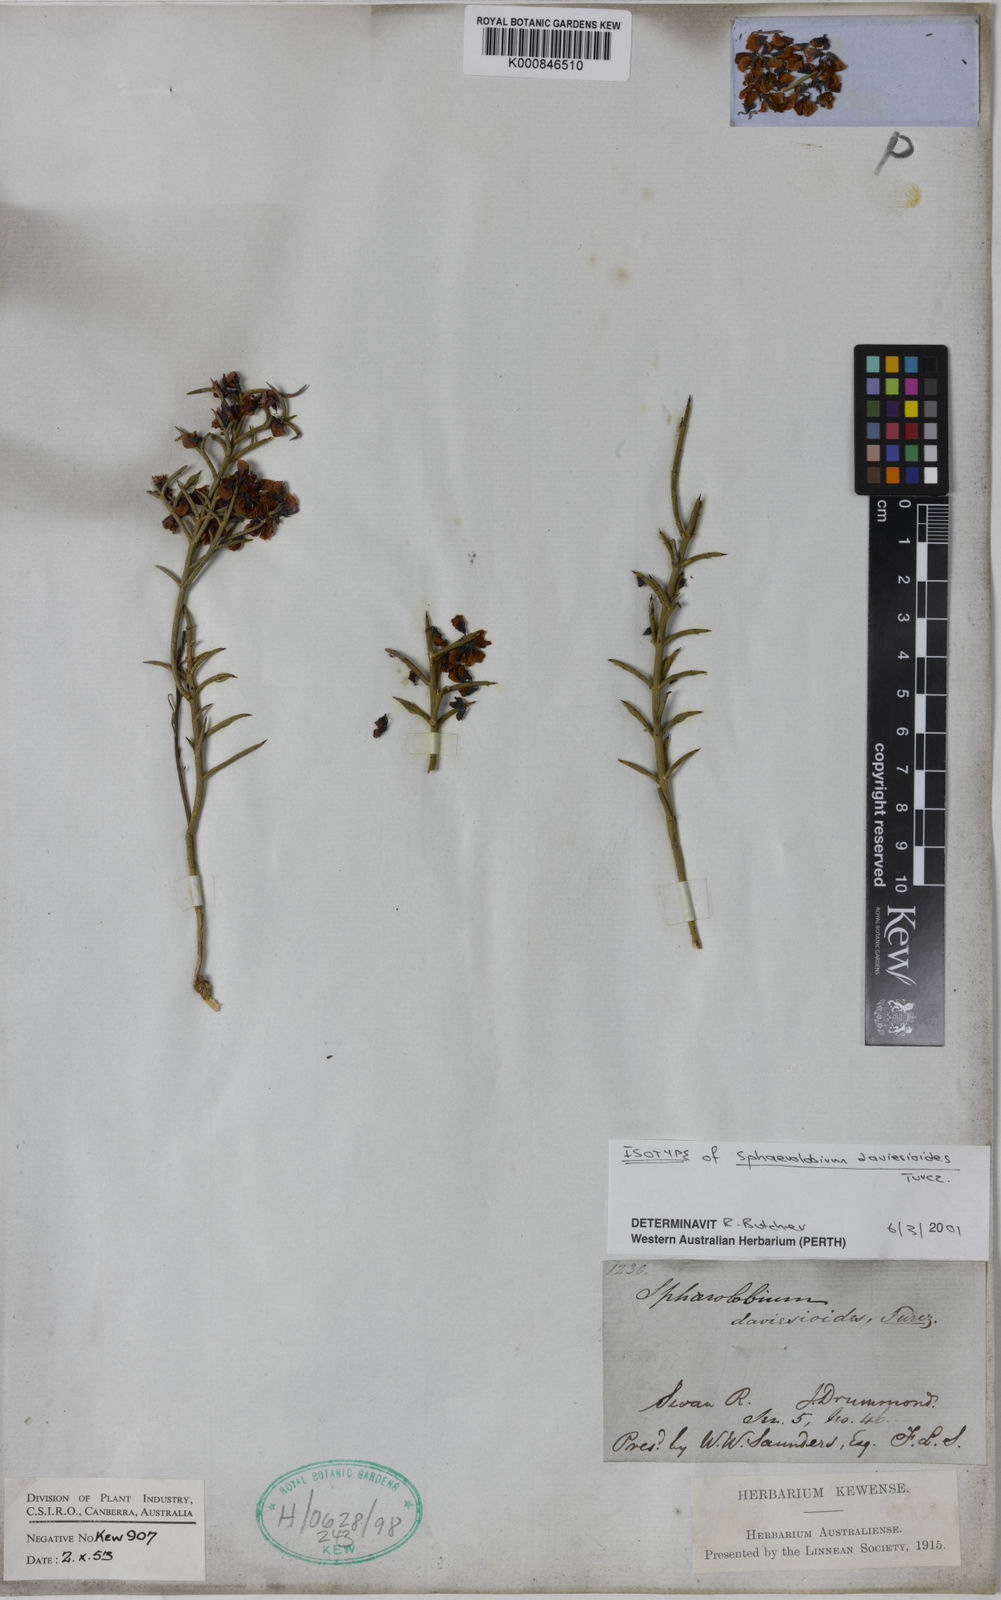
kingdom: Plantae
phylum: Tracheophyta
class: Magnoliopsida
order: Fabales
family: Fabaceae
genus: Sphaerolobium
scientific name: Sphaerolobium daviesioides
